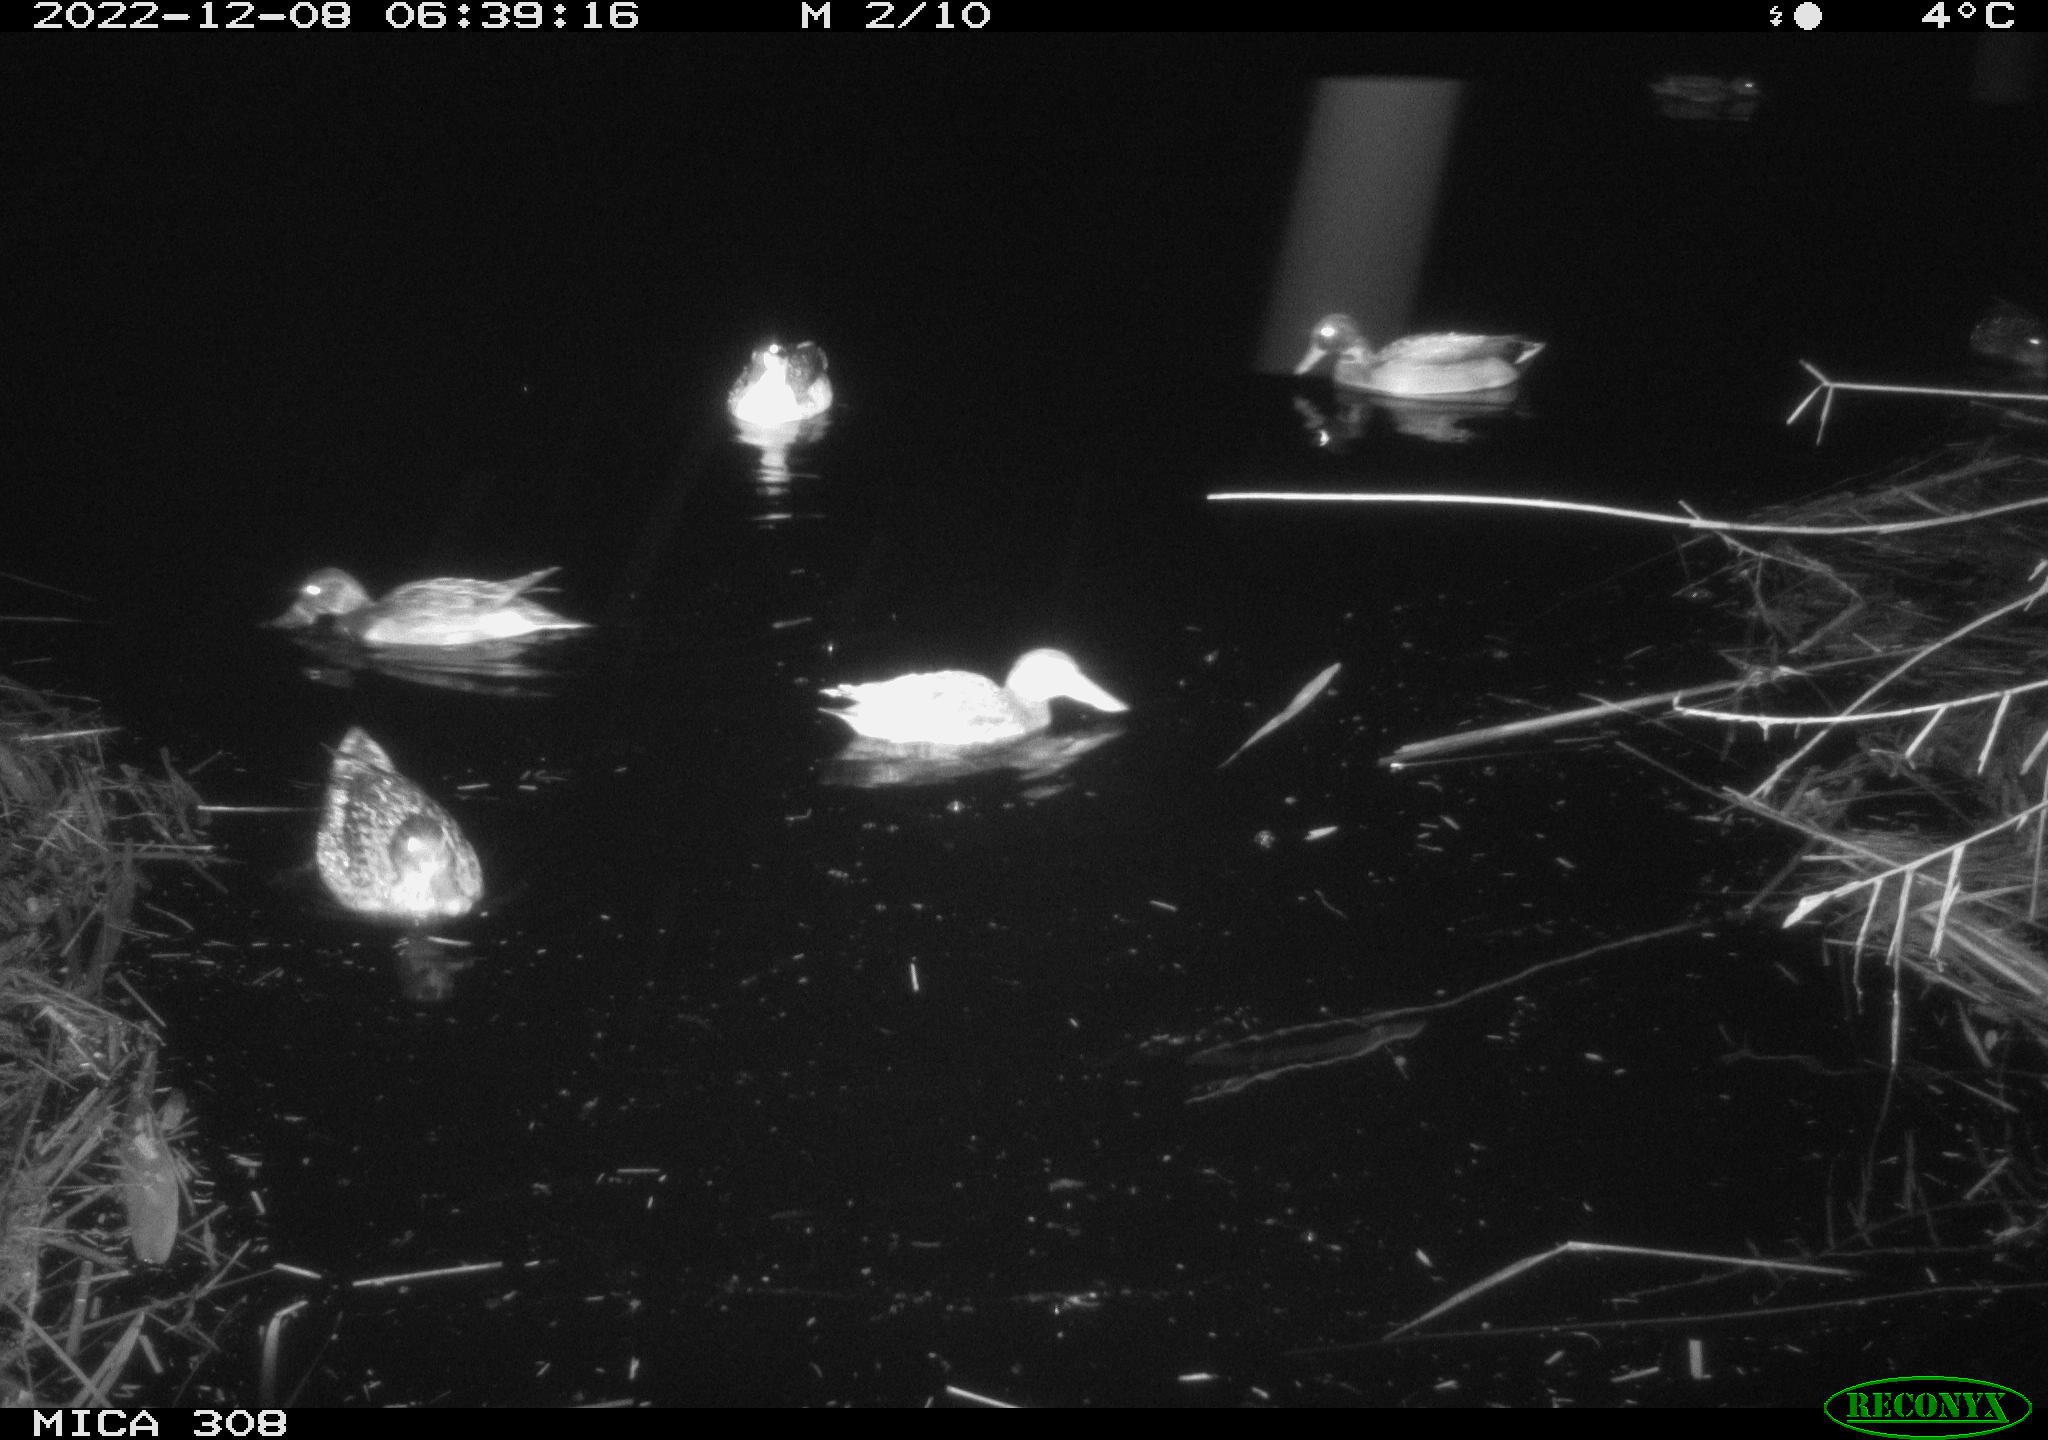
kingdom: Animalia
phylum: Chordata
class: Aves
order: Anseriformes
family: Anatidae
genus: Anas
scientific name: Anas
